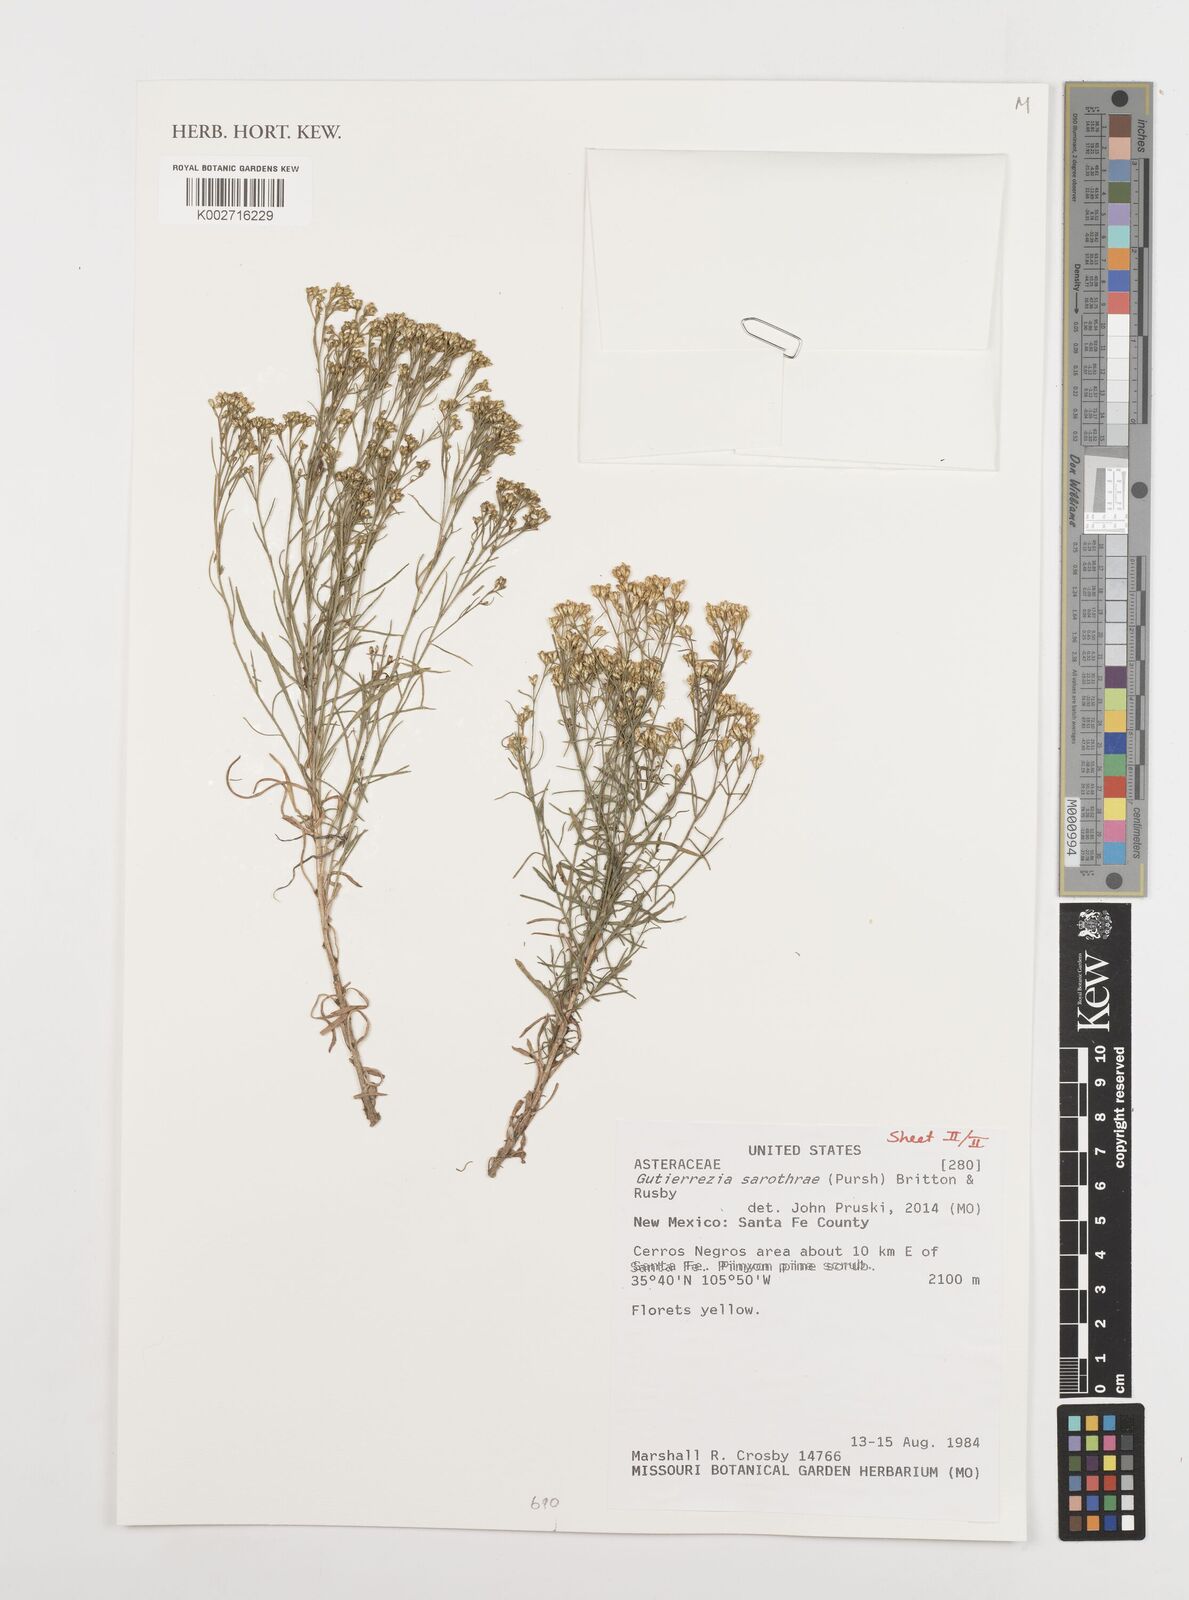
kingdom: Plantae
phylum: Tracheophyta
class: Magnoliopsida
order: Asterales
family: Asteraceae
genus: Gutierrezia
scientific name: Gutierrezia sarothrae
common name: Broom snakeweed
